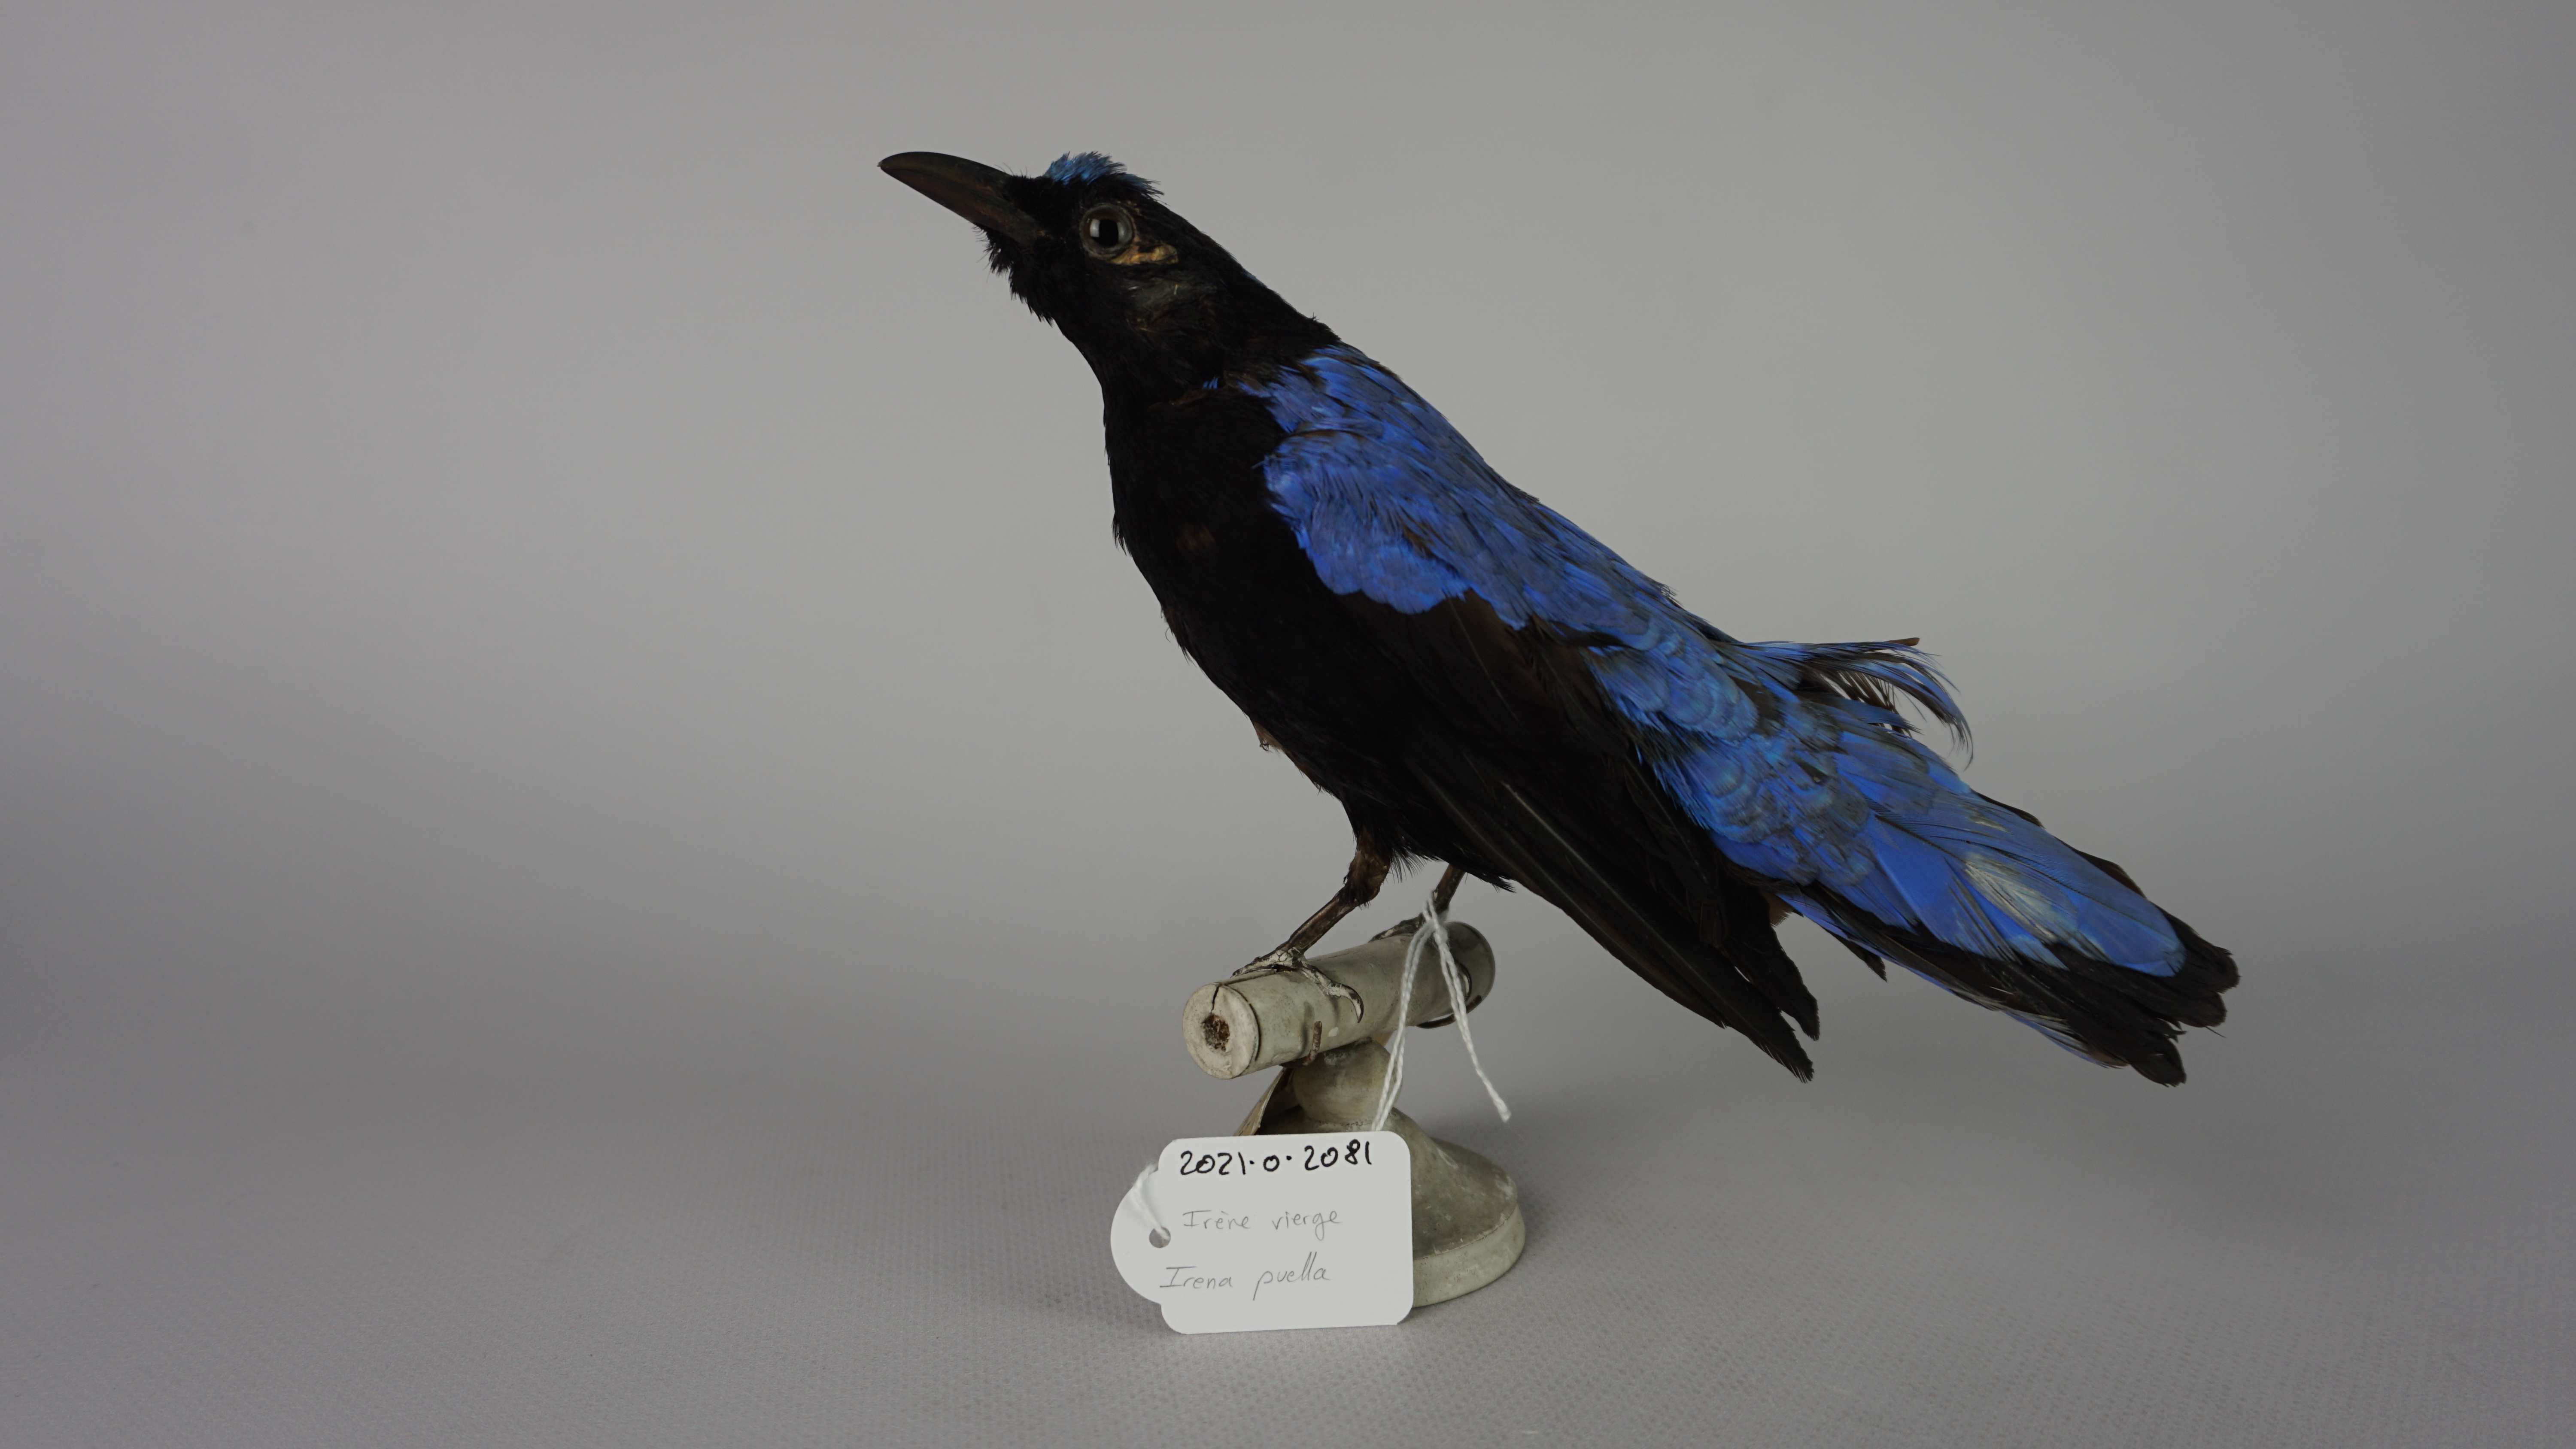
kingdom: Animalia
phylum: Chordata
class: Aves
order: Passeriformes
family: Irenidae
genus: Irena
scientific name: Irena puella
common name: Asian fairy-bluebird
